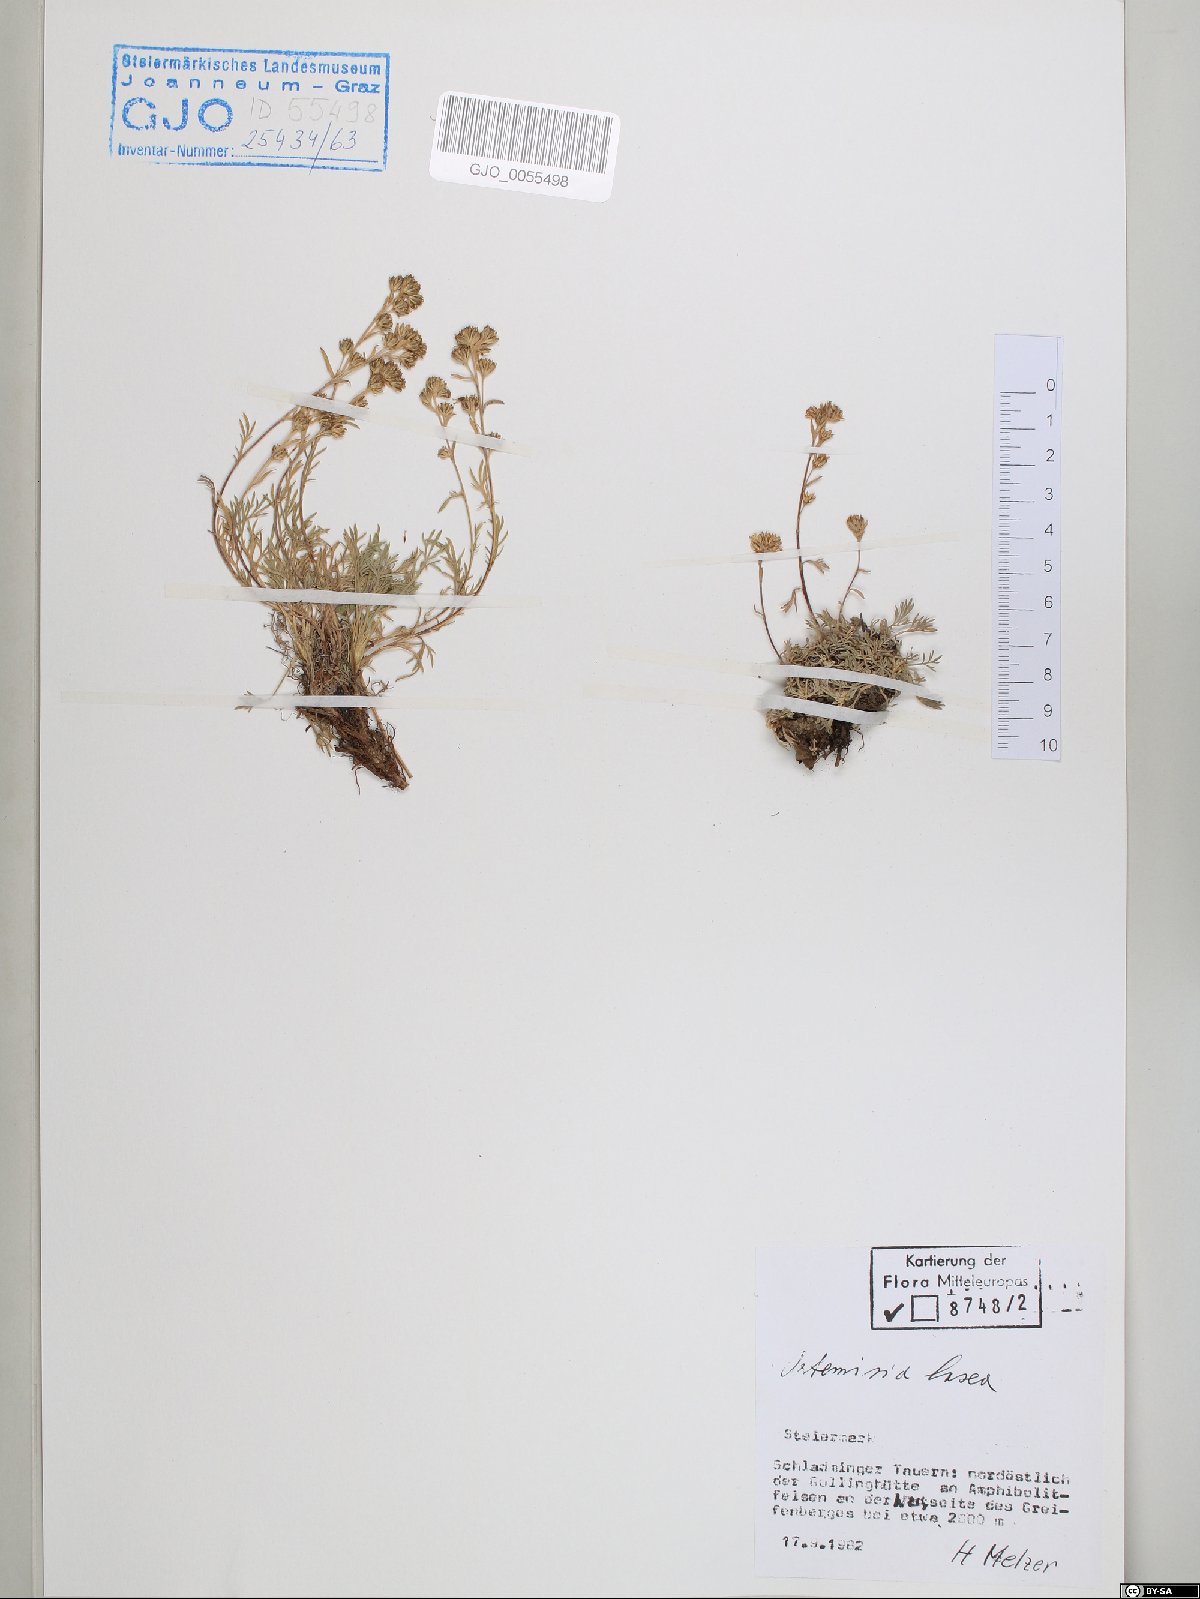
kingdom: Plantae
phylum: Tracheophyta
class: Magnoliopsida
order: Asterales
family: Asteraceae
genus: Artemisia
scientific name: Artemisia mutellina
